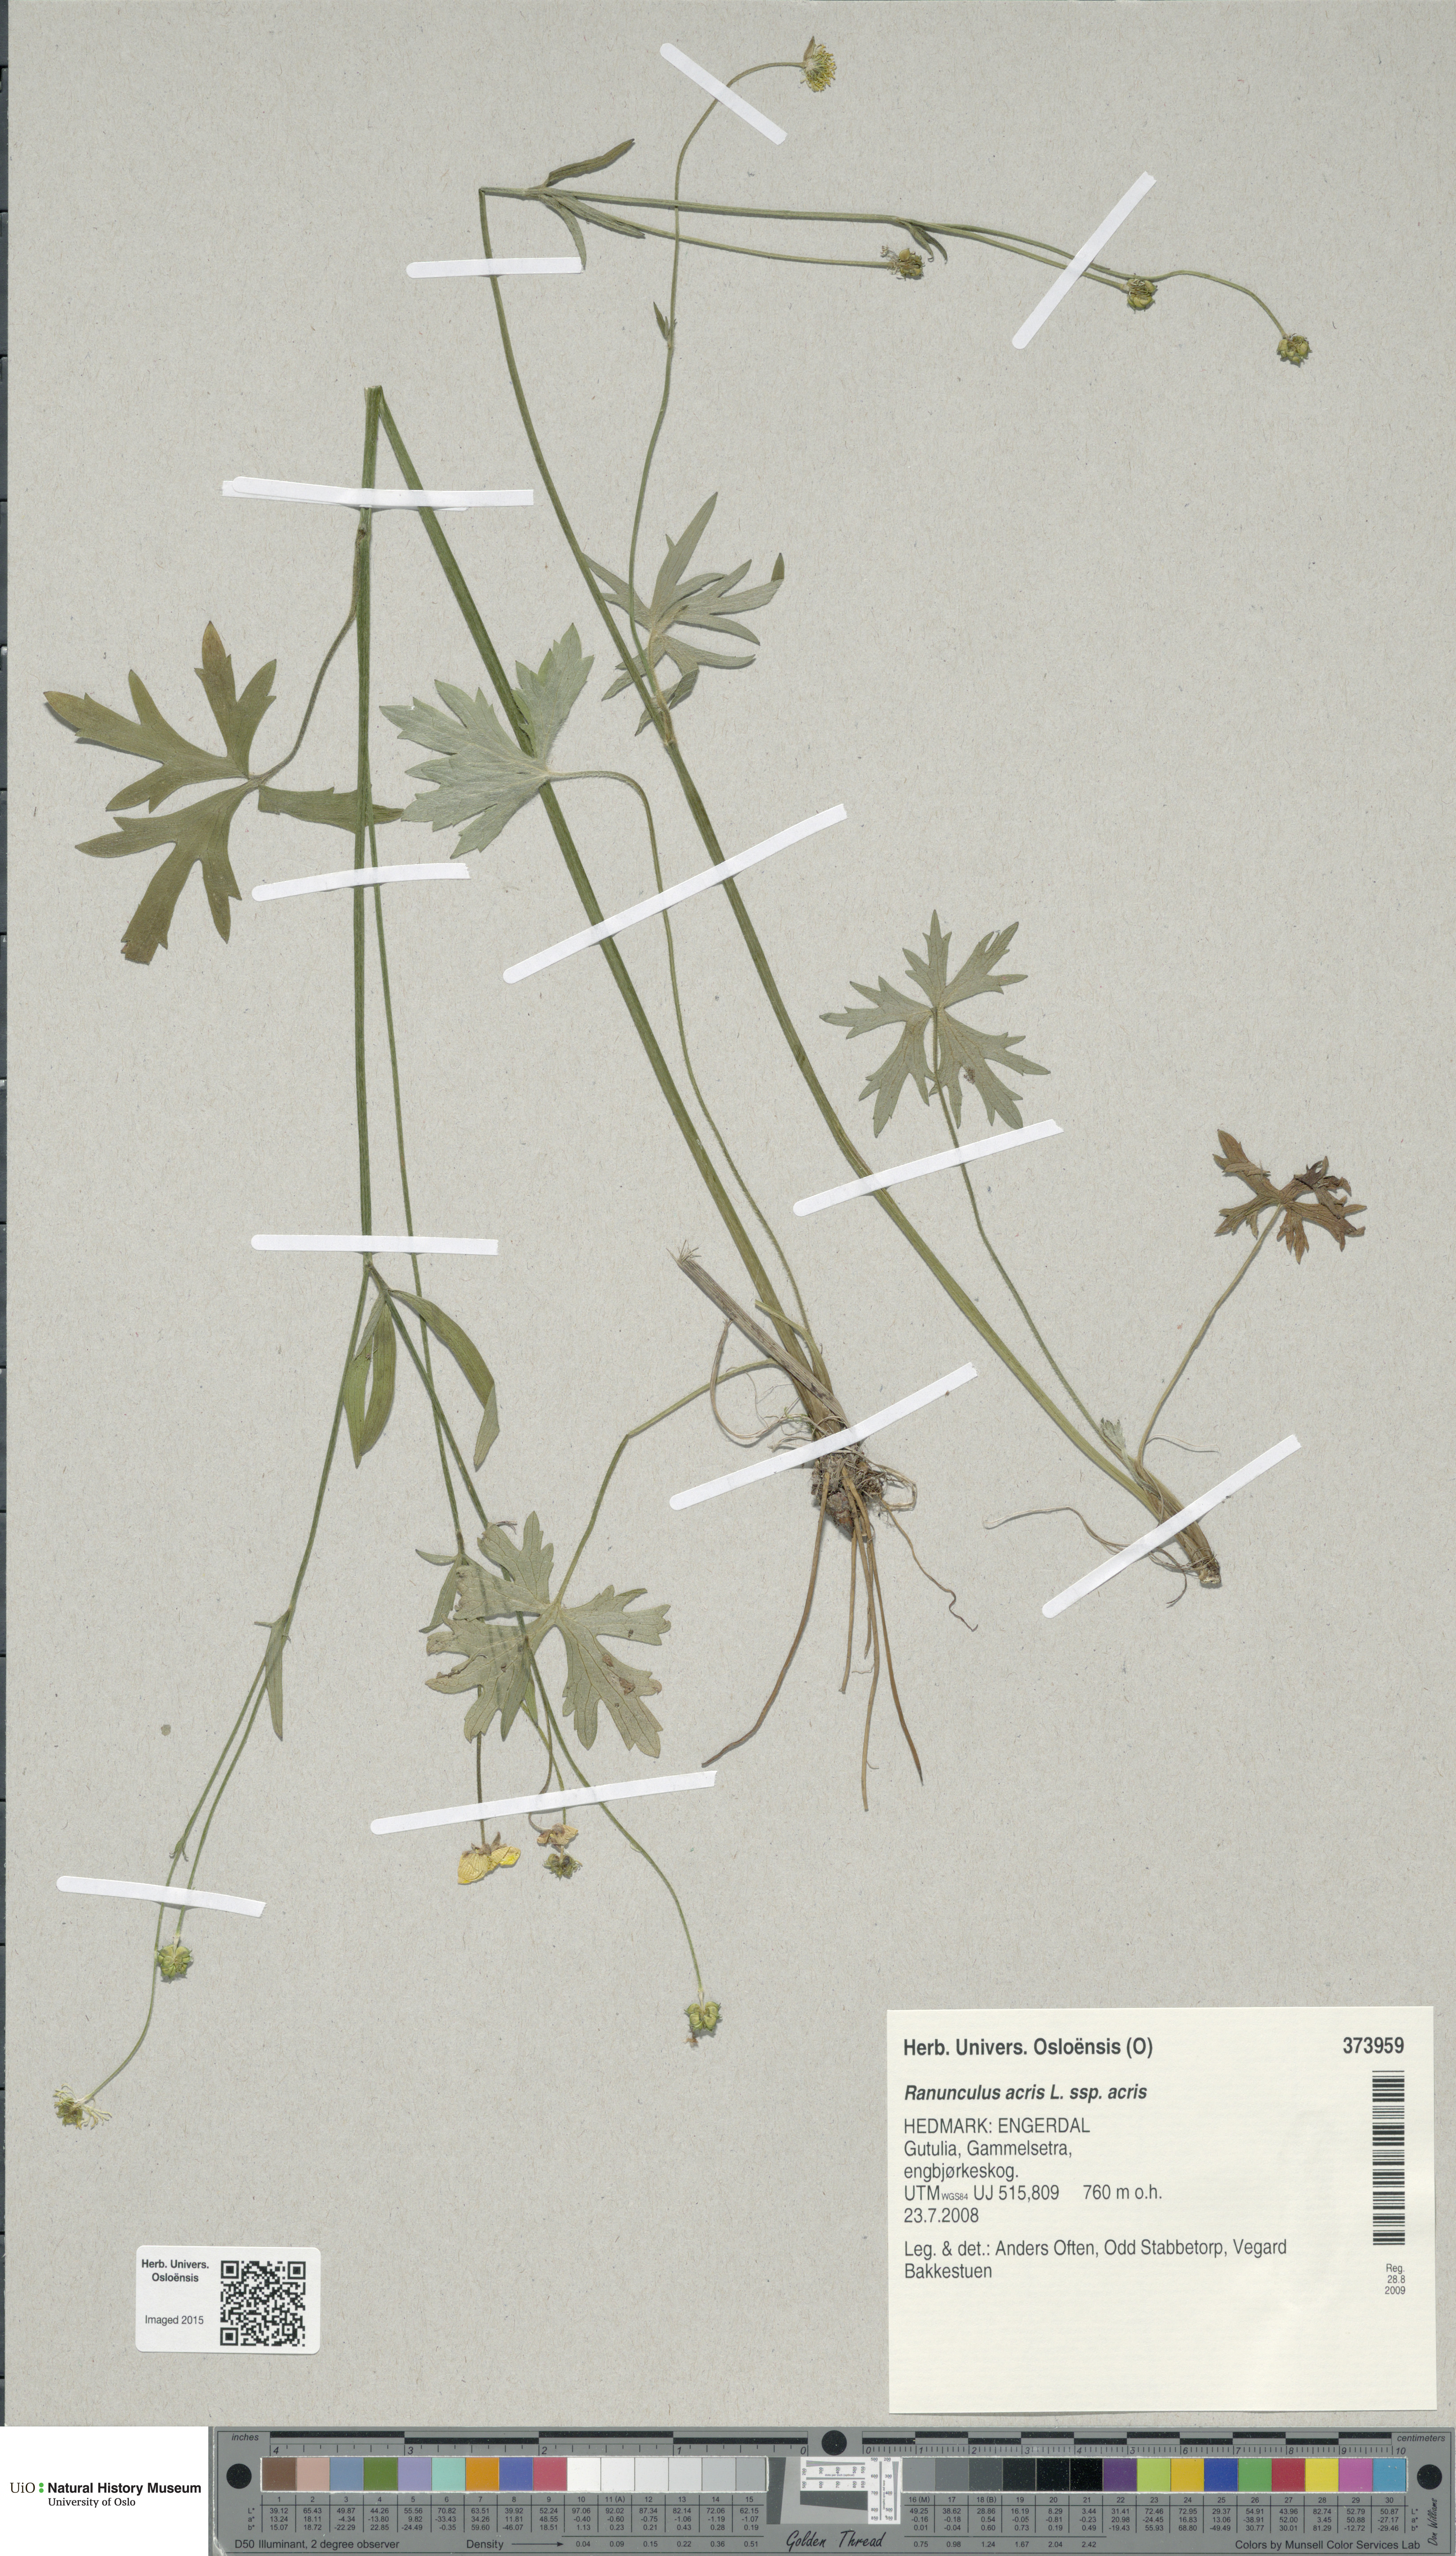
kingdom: Plantae
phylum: Tracheophyta
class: Magnoliopsida
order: Ranunculales
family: Ranunculaceae
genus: Ranunculus
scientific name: Ranunculus acris
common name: Meadow buttercup
